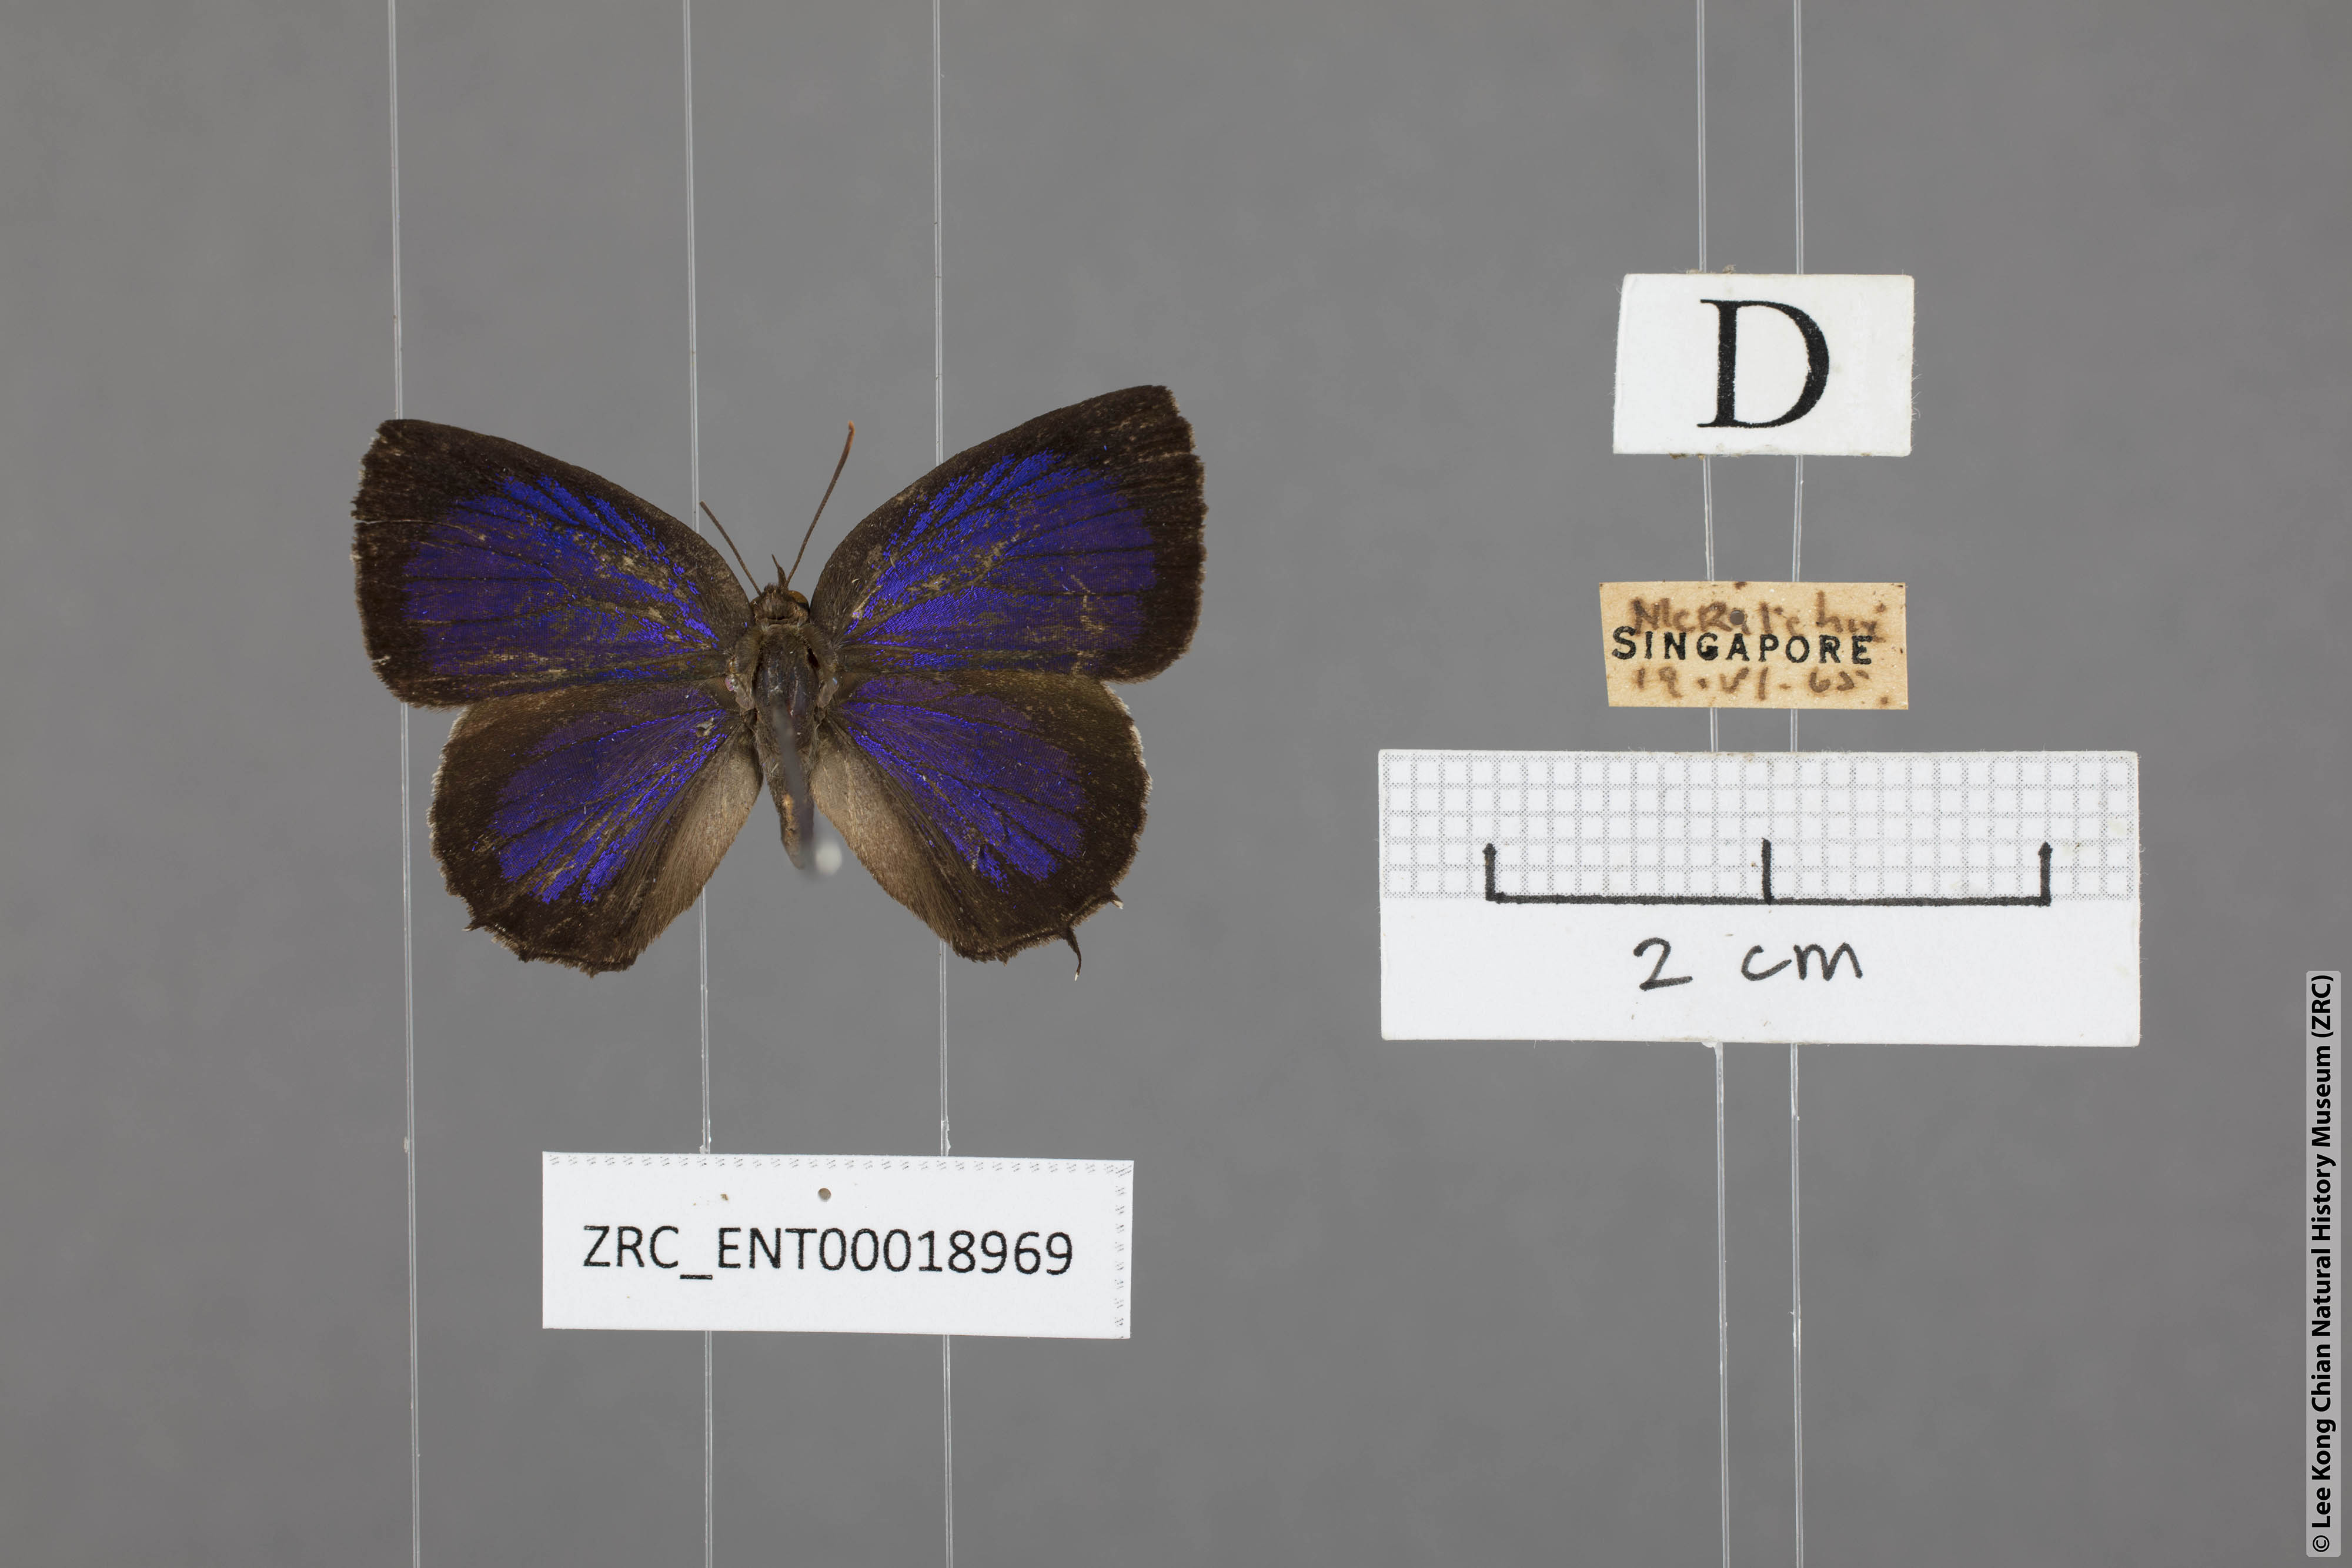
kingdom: Animalia
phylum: Arthropoda
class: Insecta
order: Lepidoptera
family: Lycaenidae
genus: Arhopala
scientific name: Arhopala abseus
